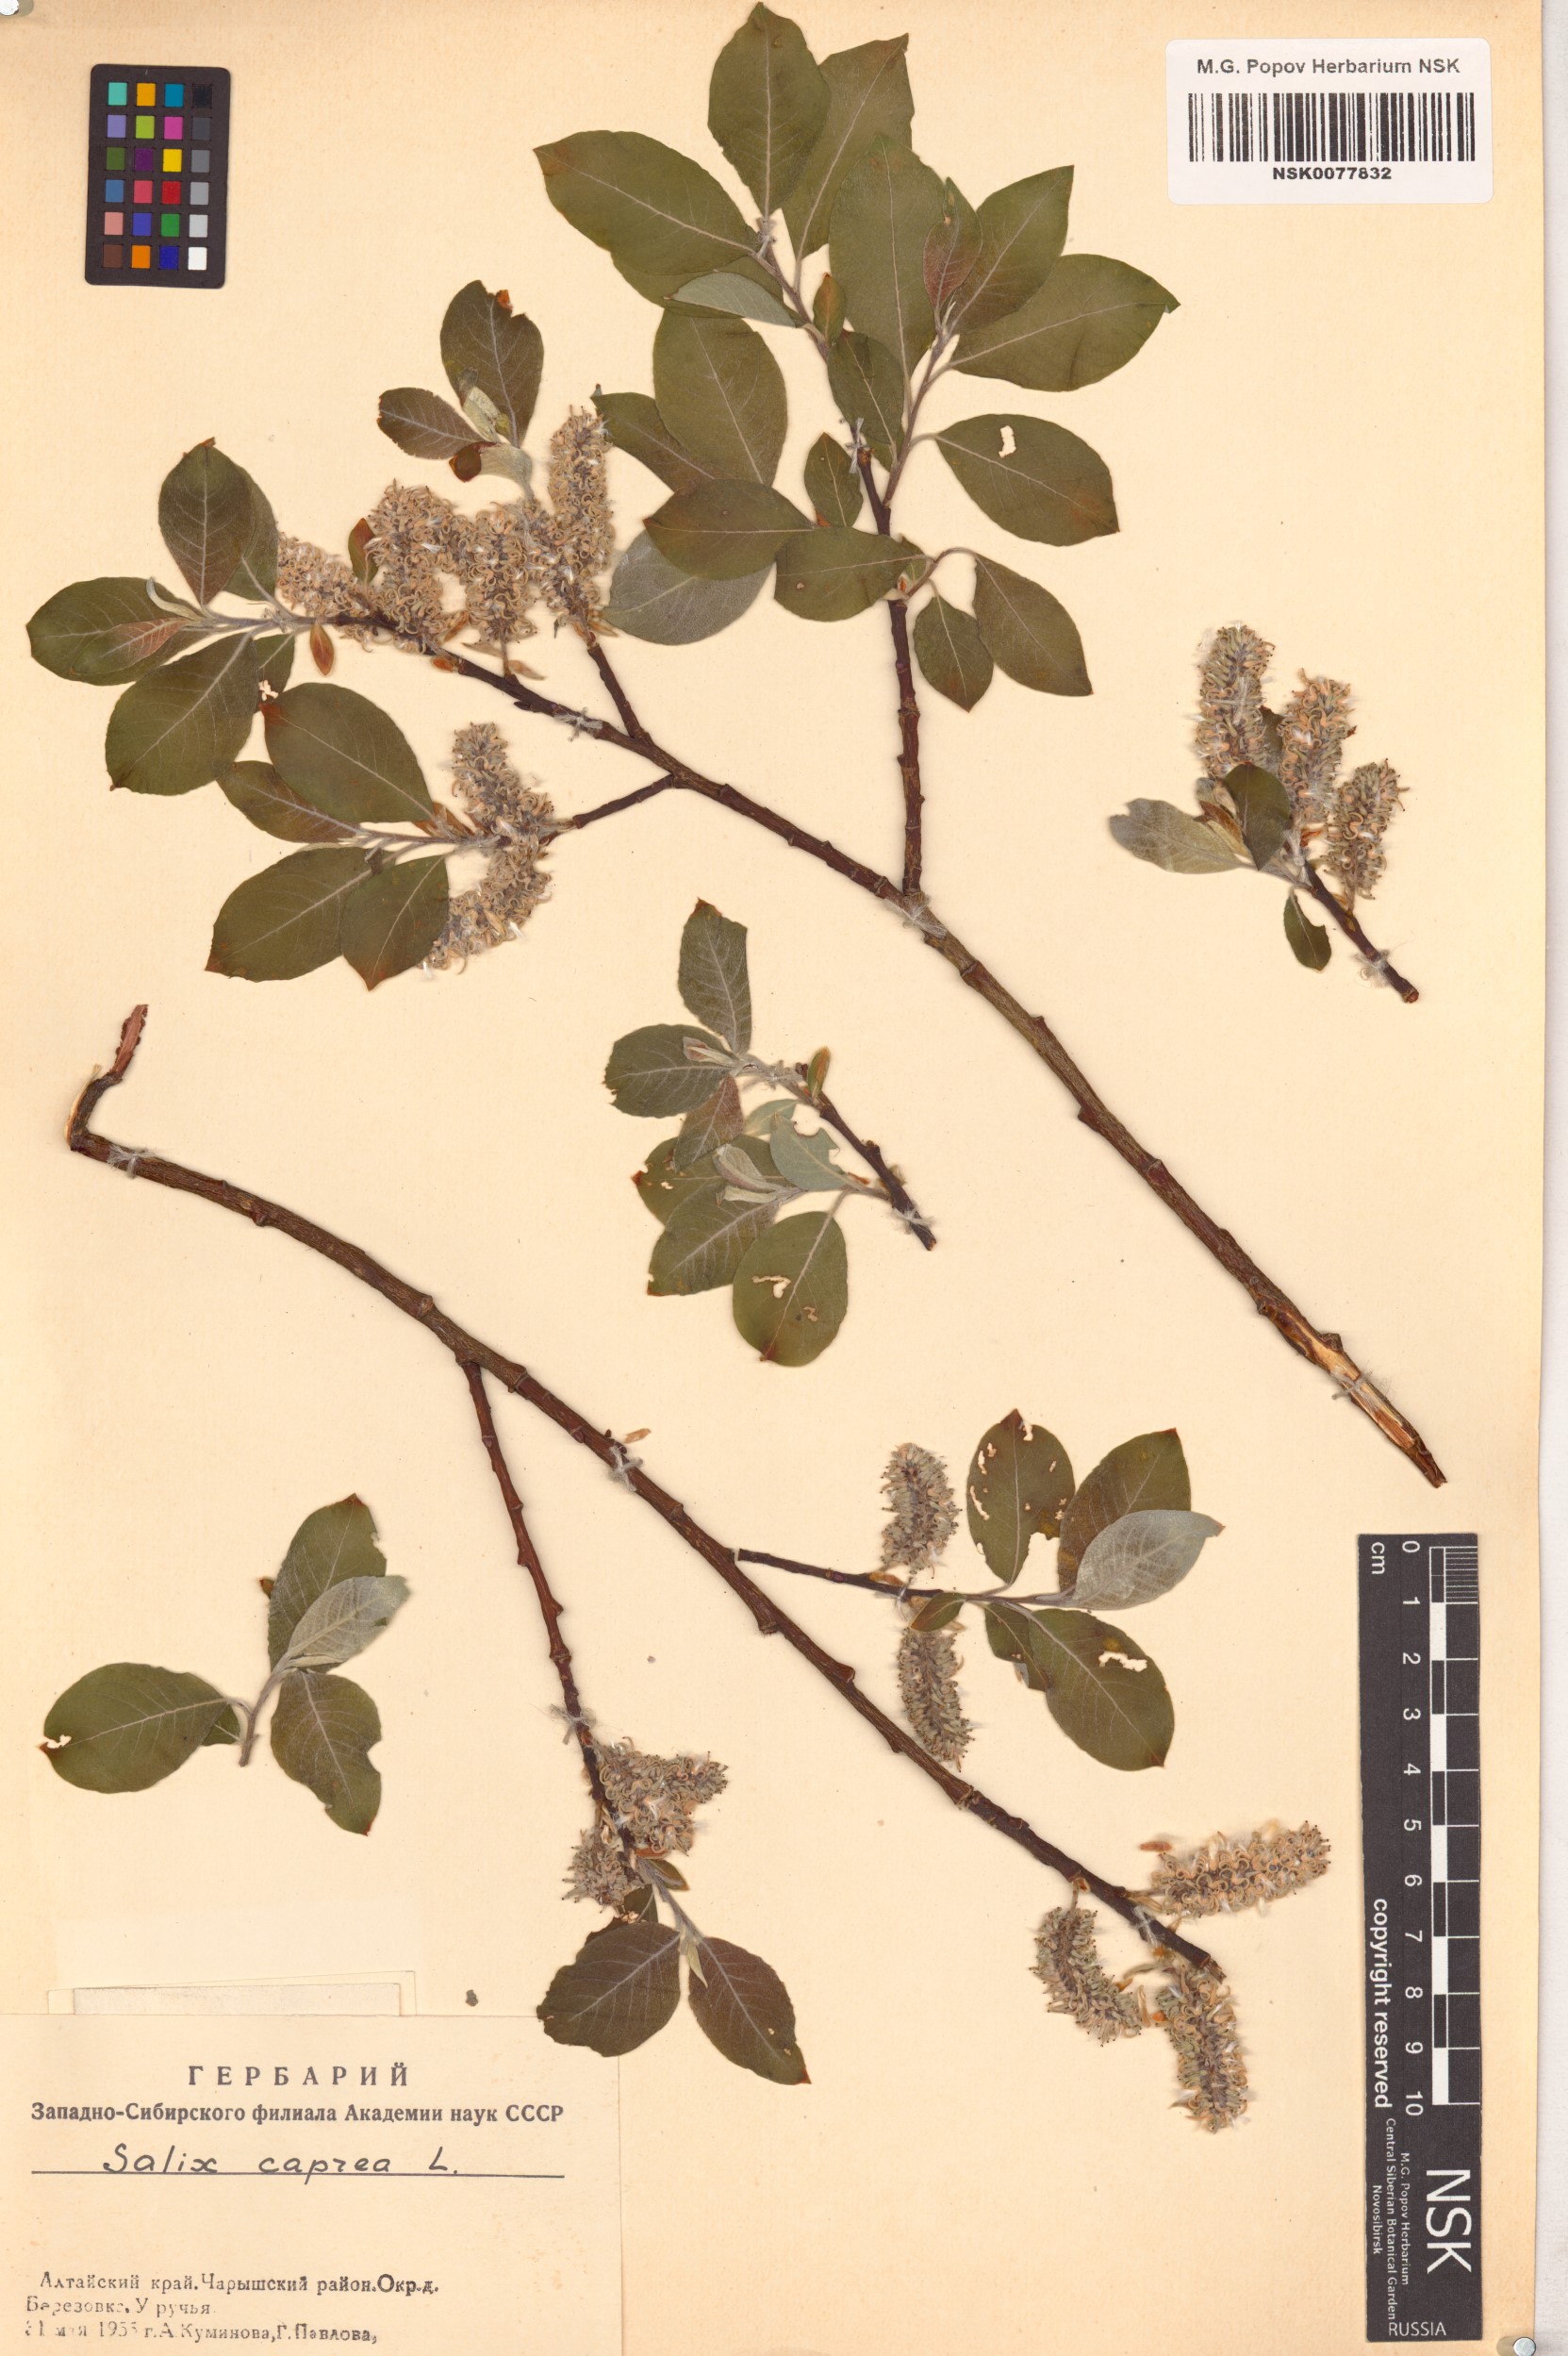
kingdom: Plantae
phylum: Tracheophyta
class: Magnoliopsida
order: Malpighiales
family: Salicaceae
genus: Salix
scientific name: Salix caprea
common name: Goat willow
